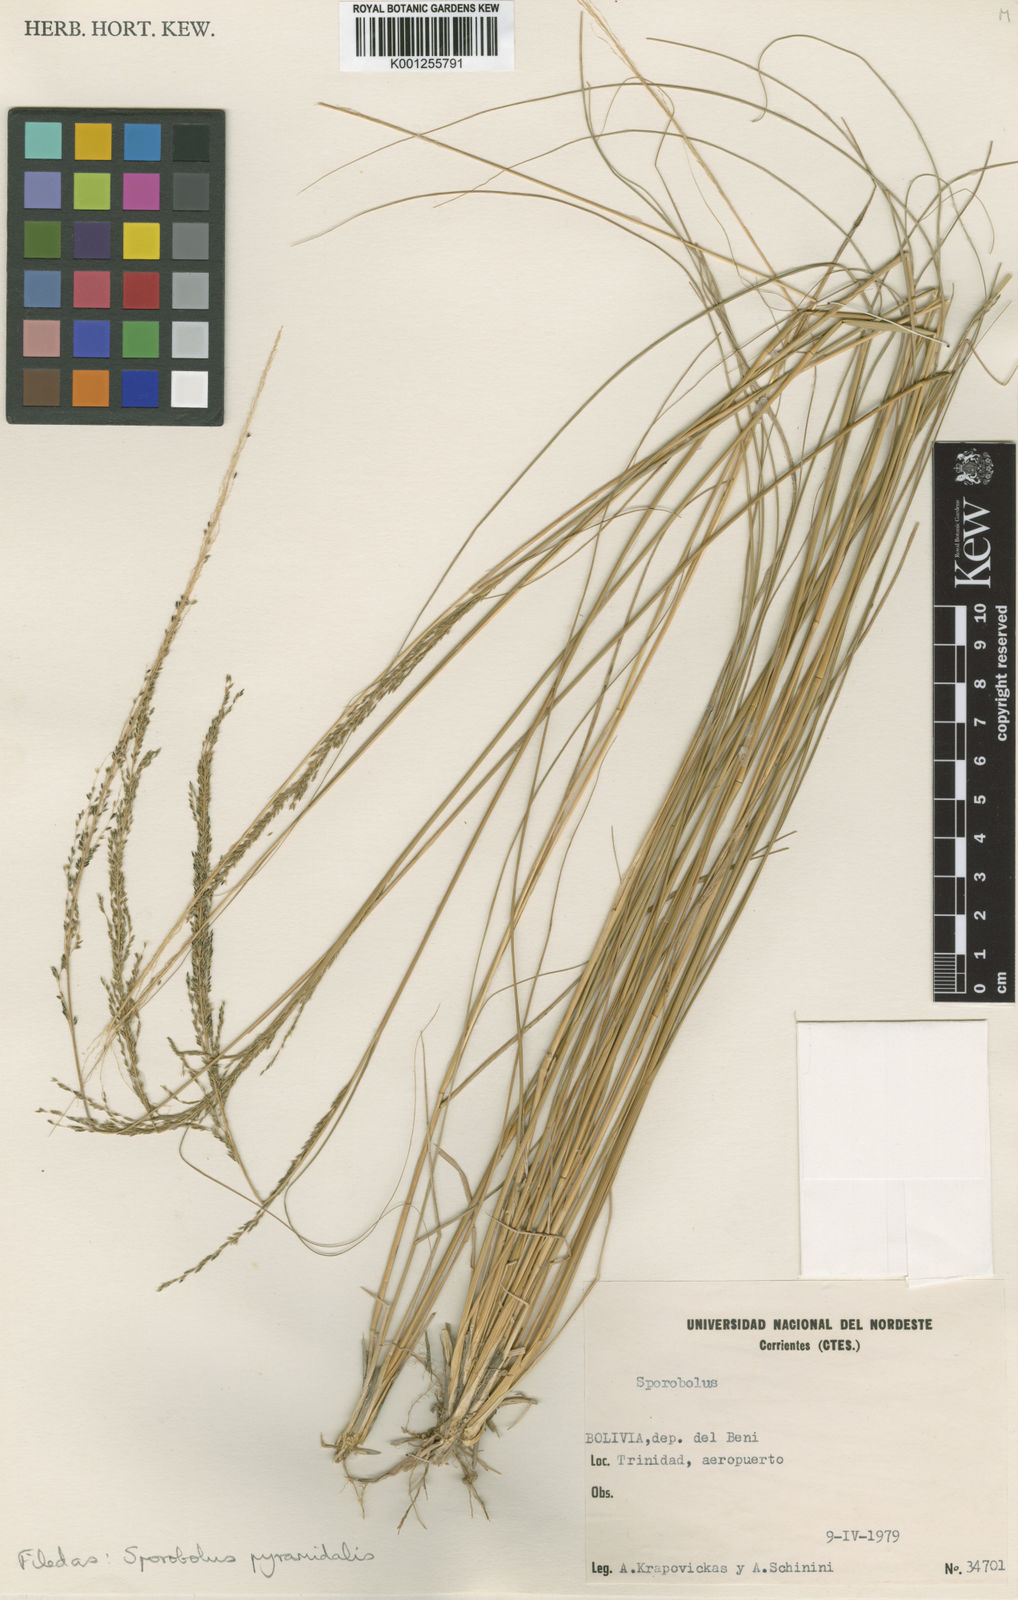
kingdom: Plantae
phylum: Tracheophyta
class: Liliopsida
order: Poales
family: Poaceae
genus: Sporobolus
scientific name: Sporobolus pyramidalis
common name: West indian dropseed
